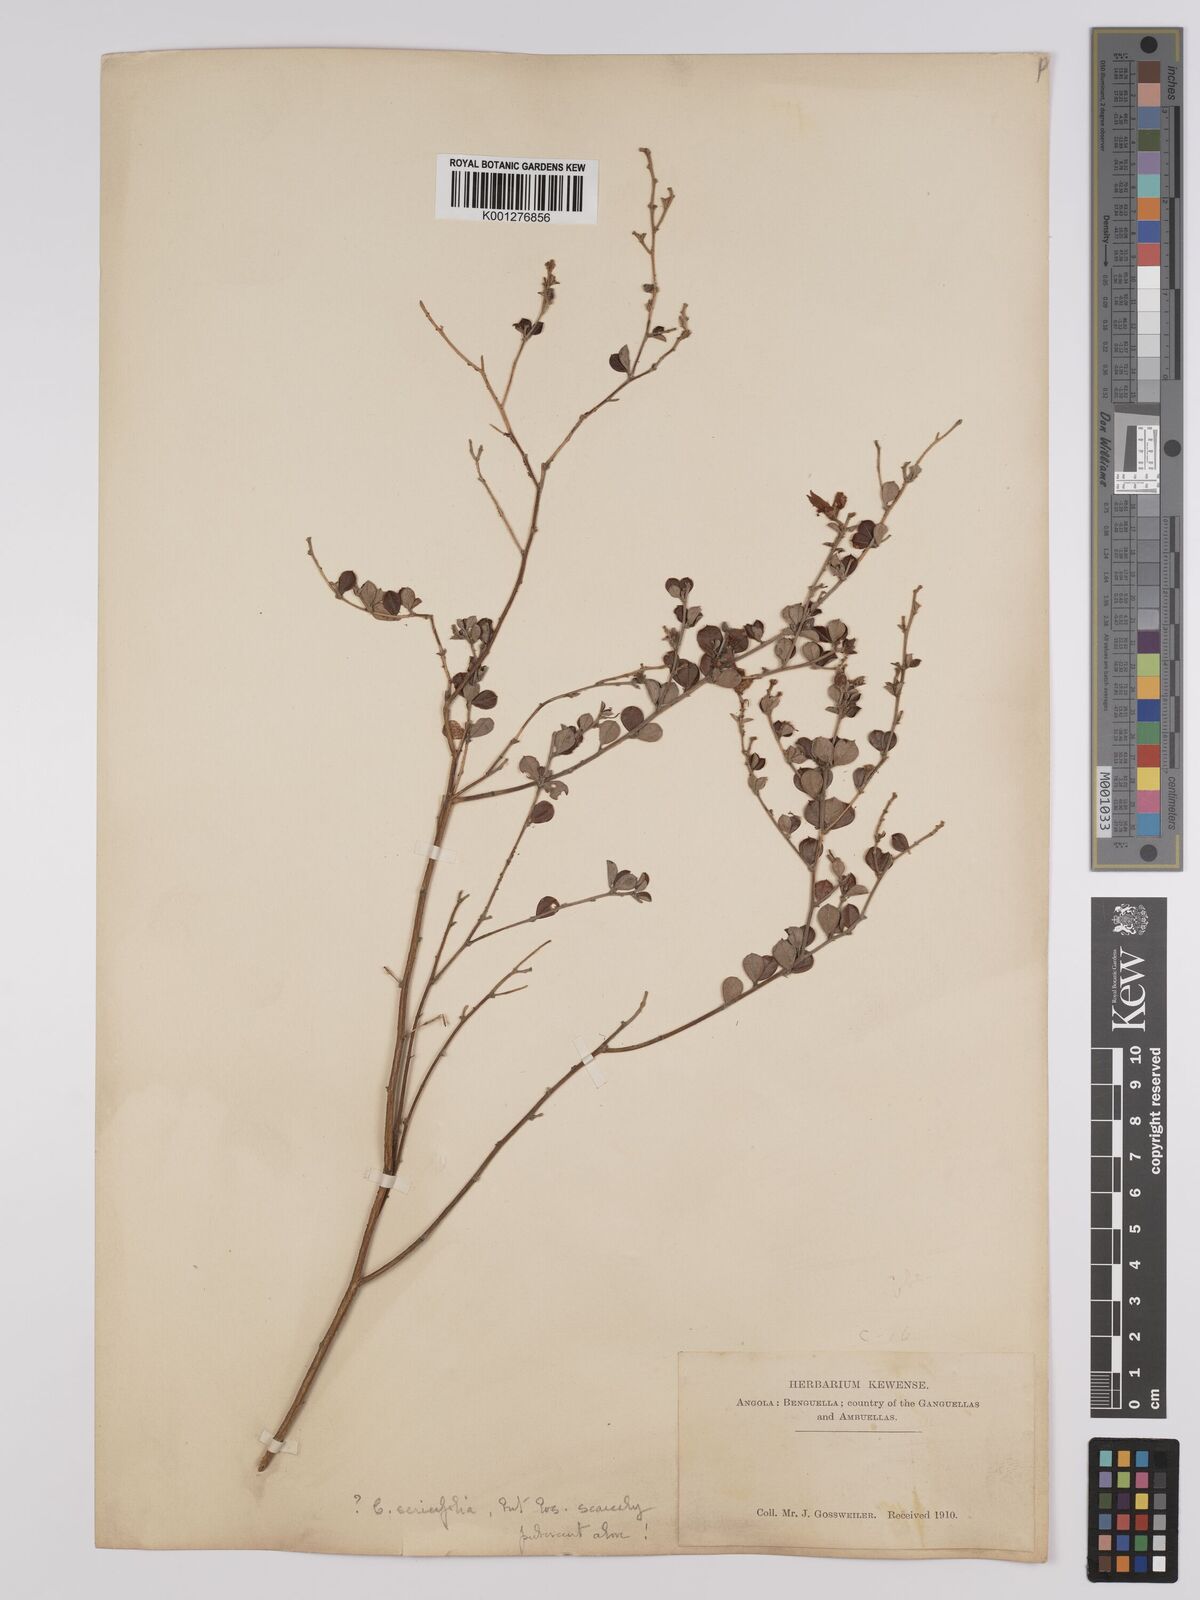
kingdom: Plantae
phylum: Tracheophyta
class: Magnoliopsida
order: Fabales
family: Fabaceae
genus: Crotalaria
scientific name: Crotalaria sericifolia
